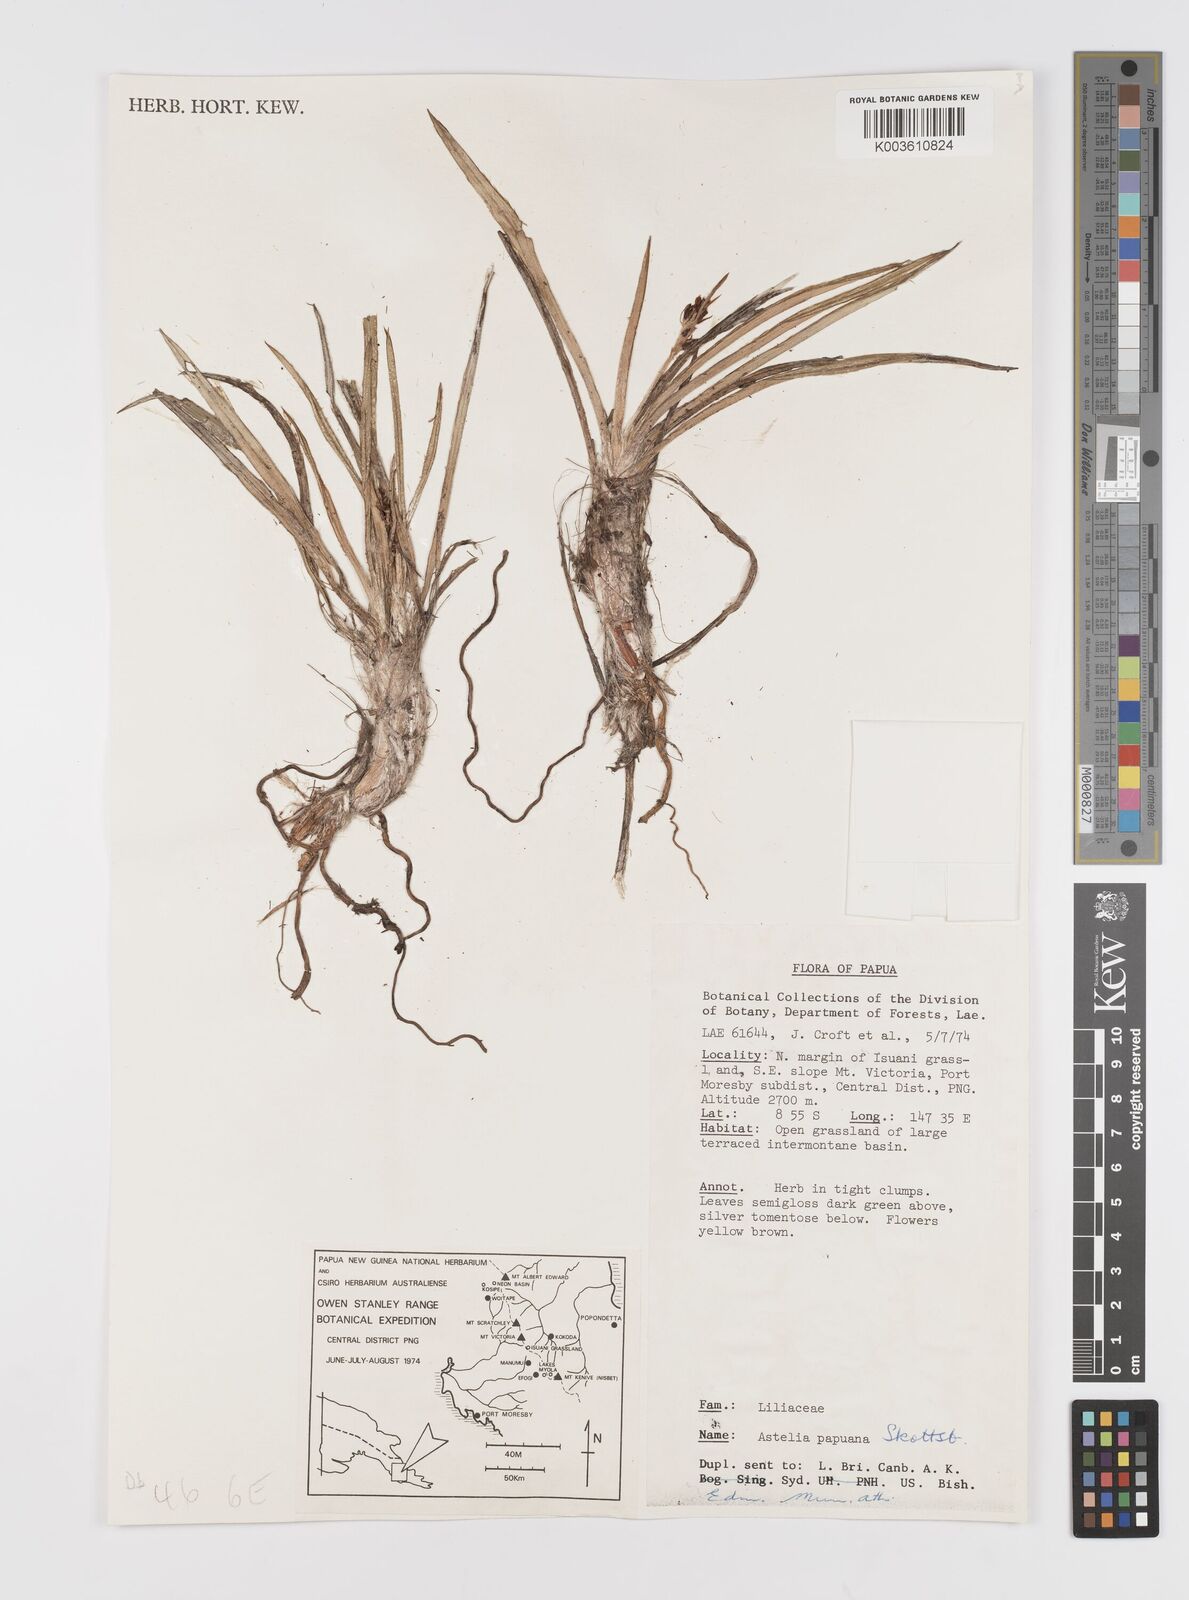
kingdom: Plantae
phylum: Tracheophyta
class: Liliopsida
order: Asparagales
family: Asteliaceae
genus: Astelia
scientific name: Astelia papuana
